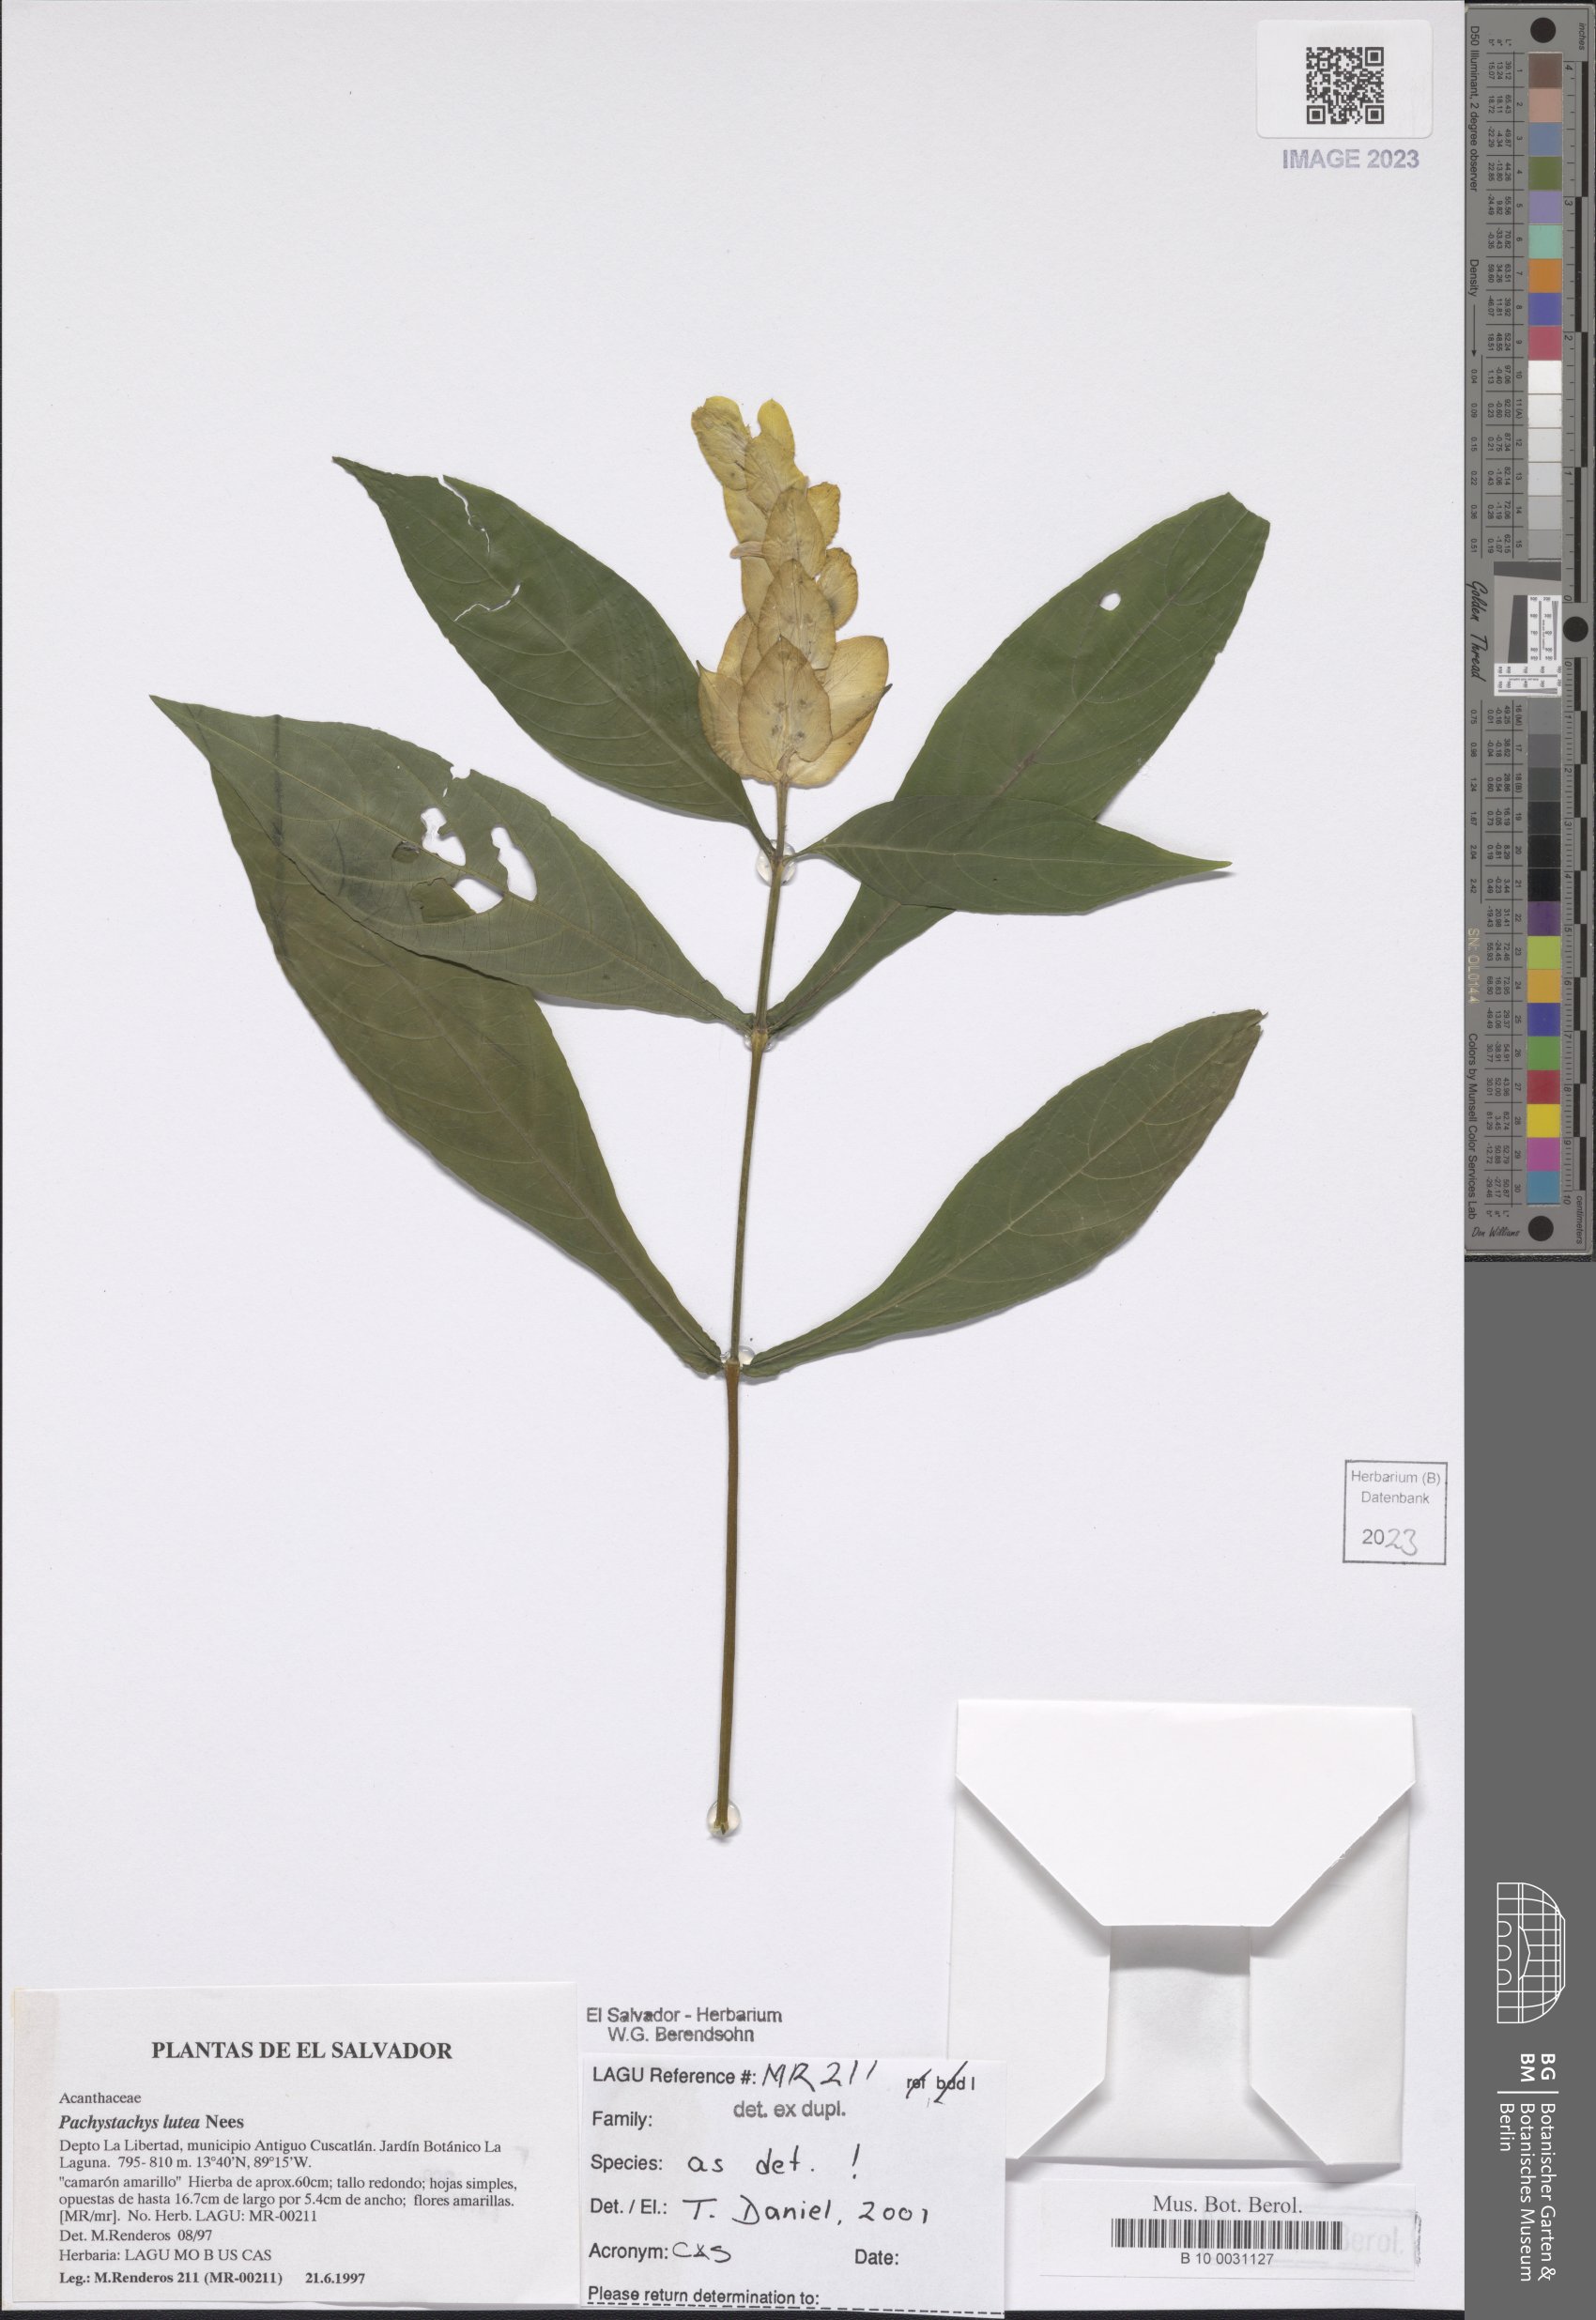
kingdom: Plantae
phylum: Tracheophyta
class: Magnoliopsida
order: Lamiales
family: Acanthaceae
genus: Pachystachys
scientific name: Pachystachys lutea
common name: Golden shrimp-plant
